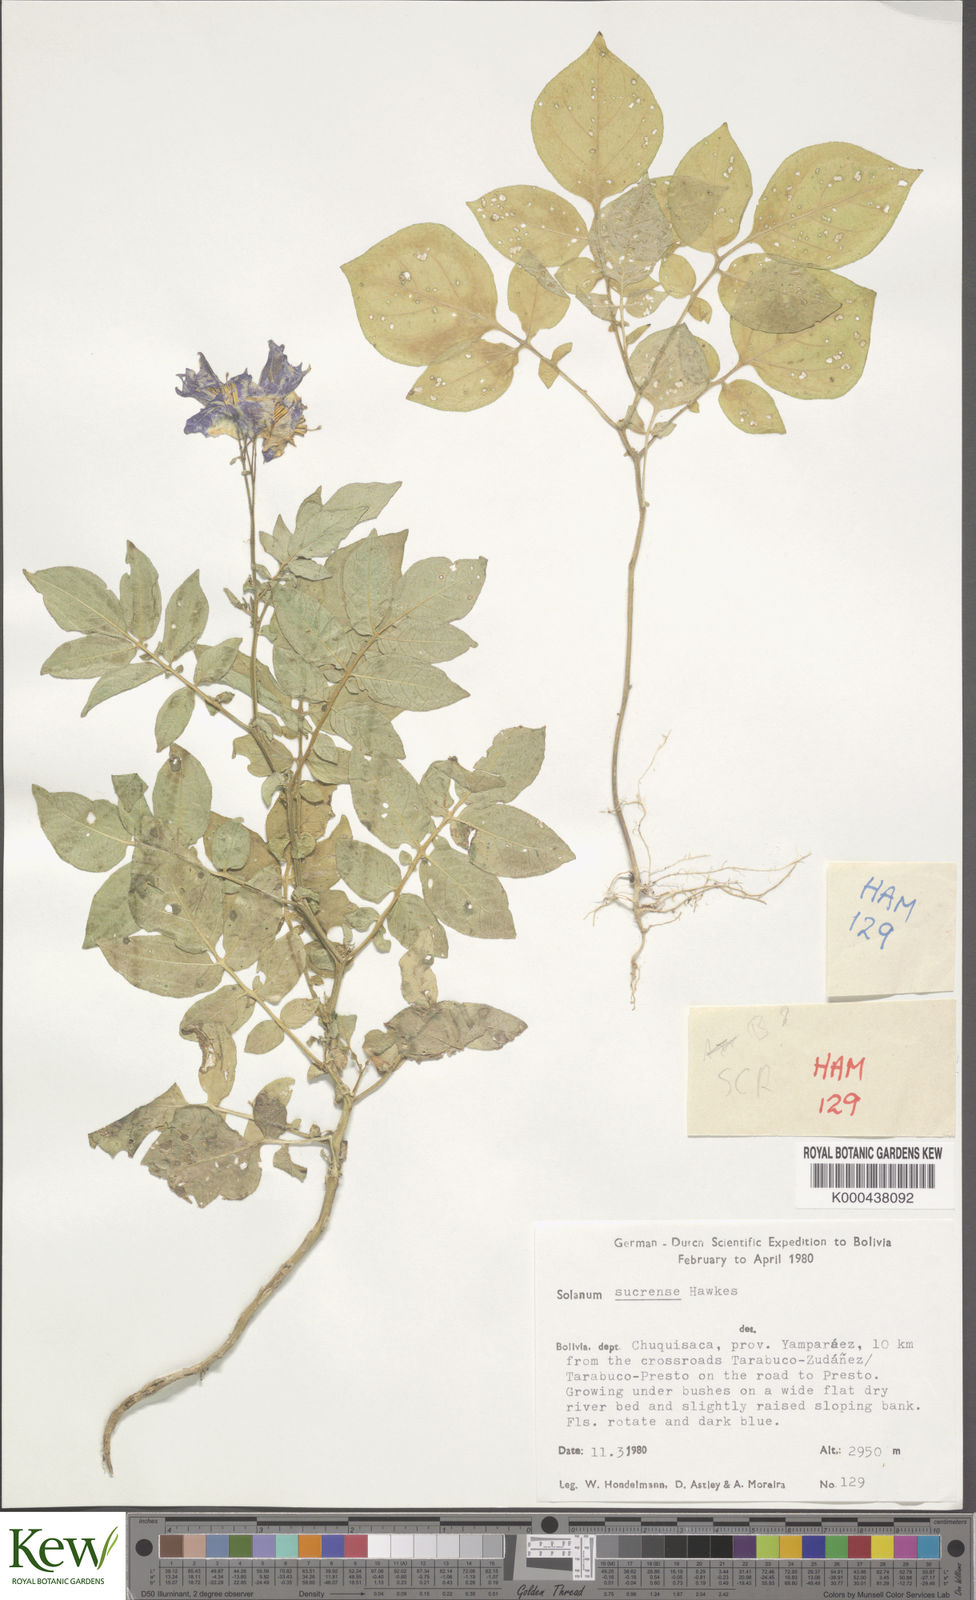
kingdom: Plantae
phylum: Tracheophyta
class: Magnoliopsida
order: Solanales
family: Solanaceae
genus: Solanum
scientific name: Solanum brevicaule
